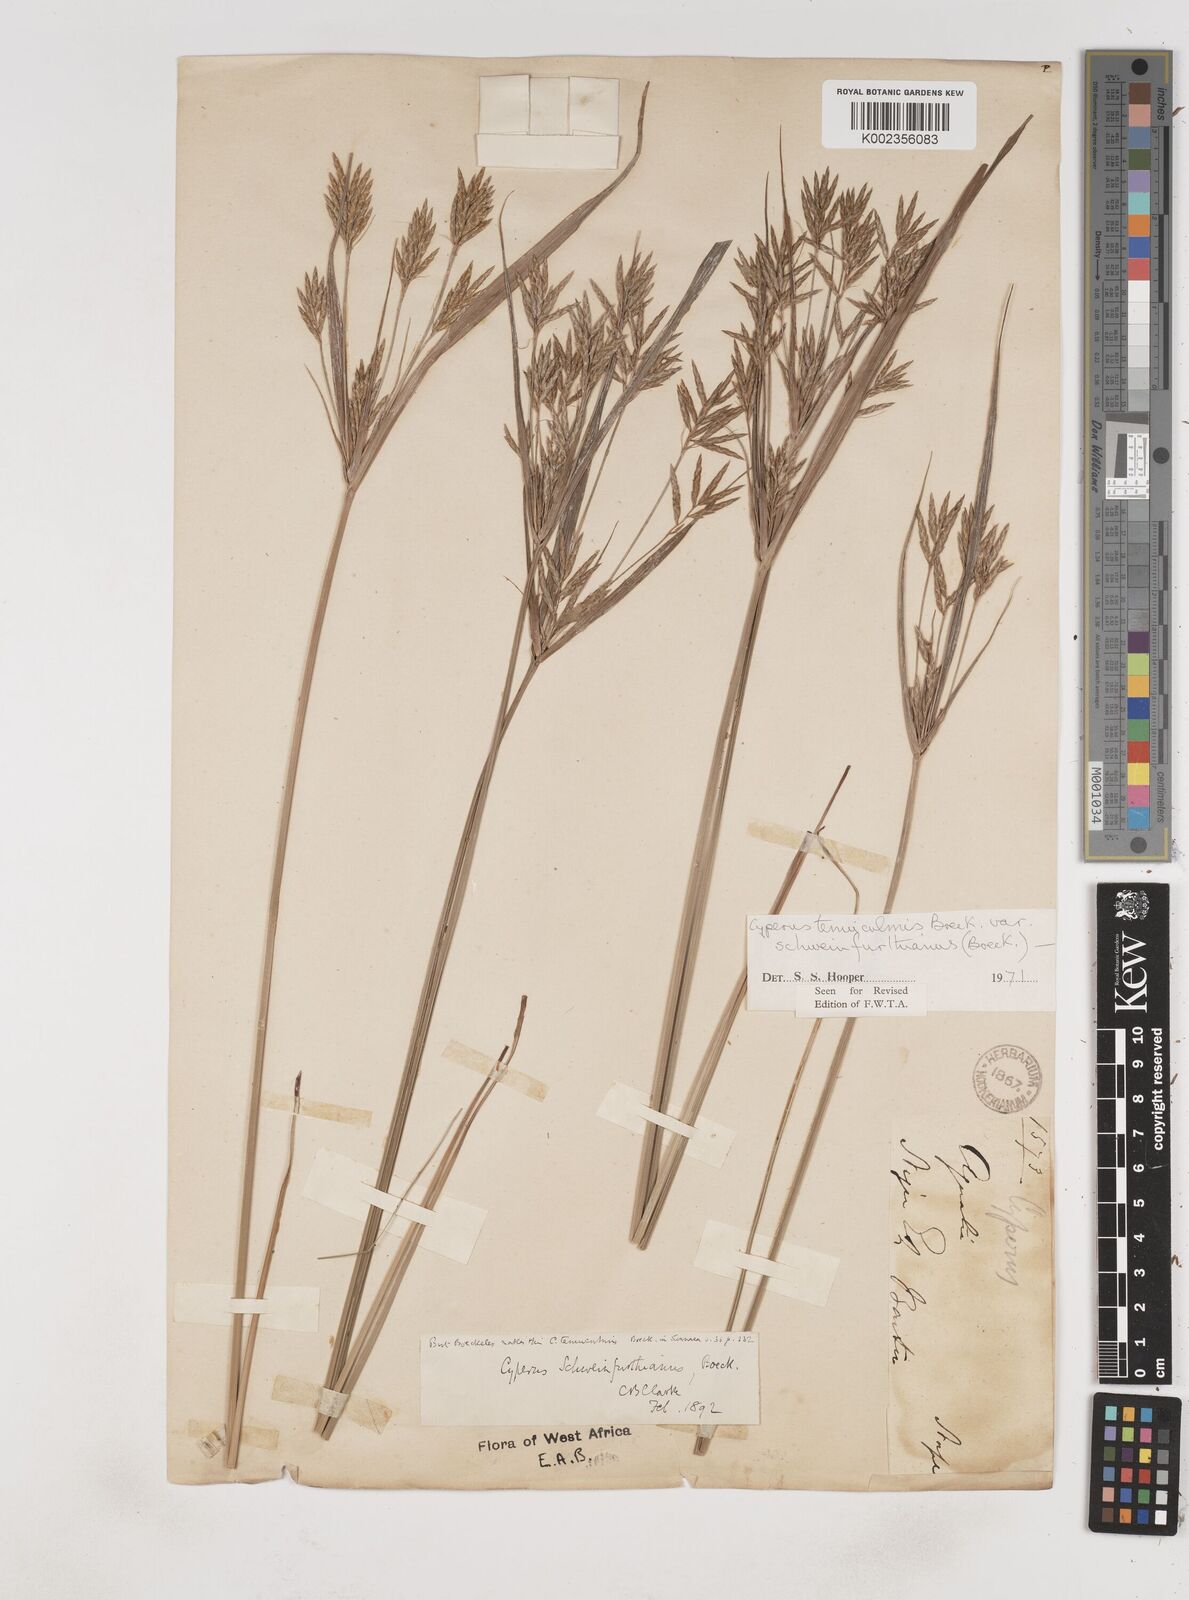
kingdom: Plantae
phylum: Tracheophyta
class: Liliopsida
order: Poales
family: Cyperaceae
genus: Cyperus
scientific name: Cyperus tenuiculmis
